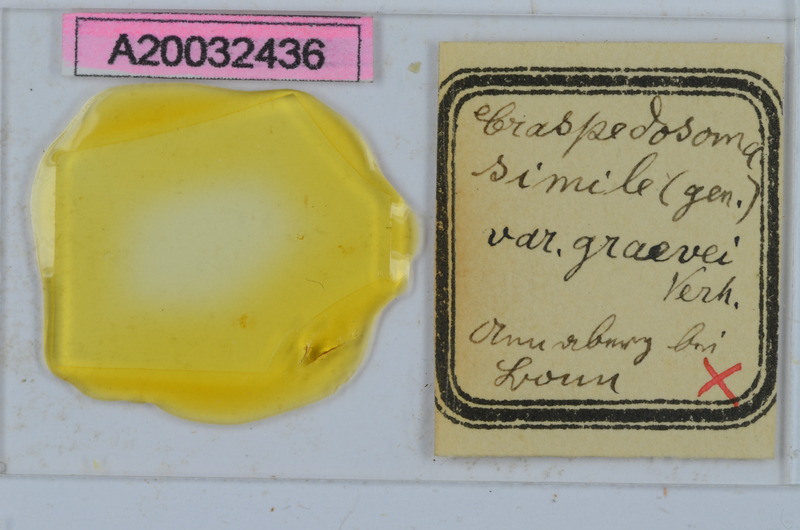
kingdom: Animalia
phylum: Arthropoda
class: Diplopoda
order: Chordeumatida
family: Craspedosomatidae
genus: Craspedosoma
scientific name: Craspedosoma rawlinsii
